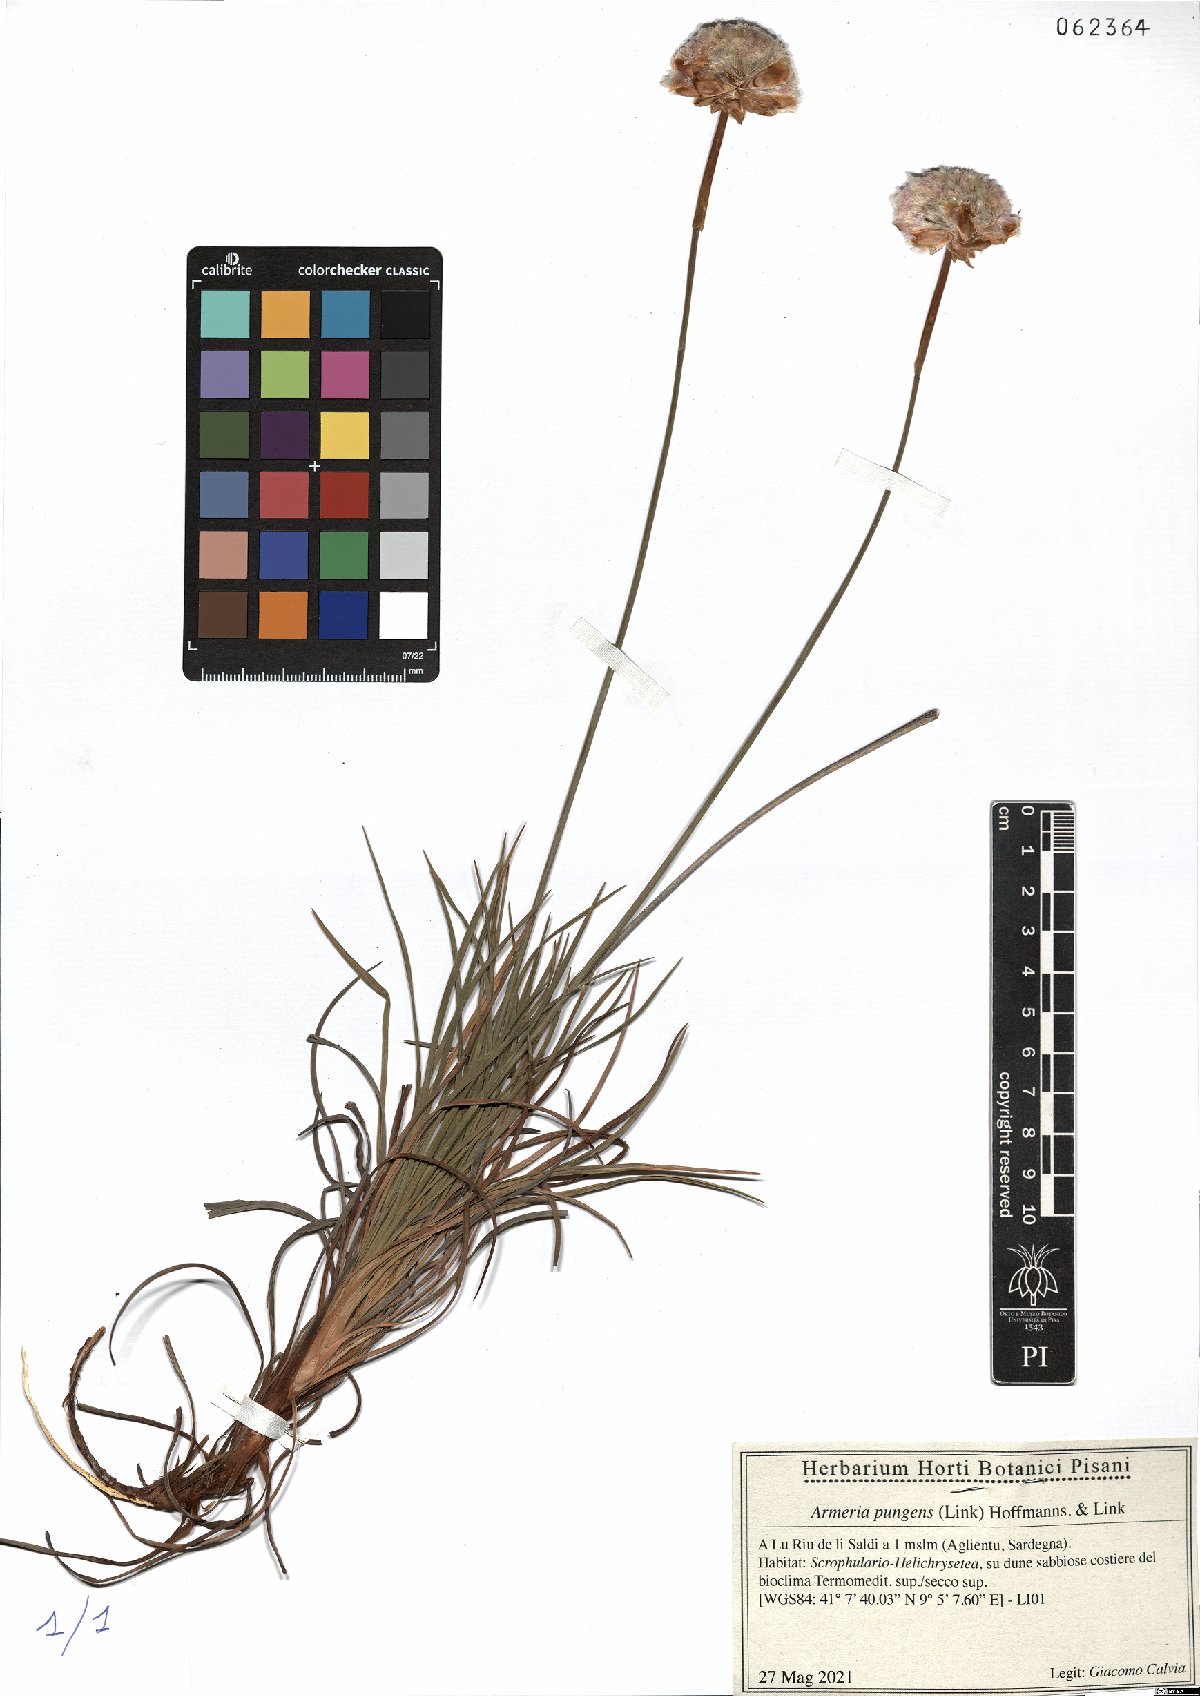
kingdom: Plantae
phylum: Tracheophyta
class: Magnoliopsida
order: Caryophyllales
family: Plumbaginaceae
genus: Armeria
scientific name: Armeria pungens
